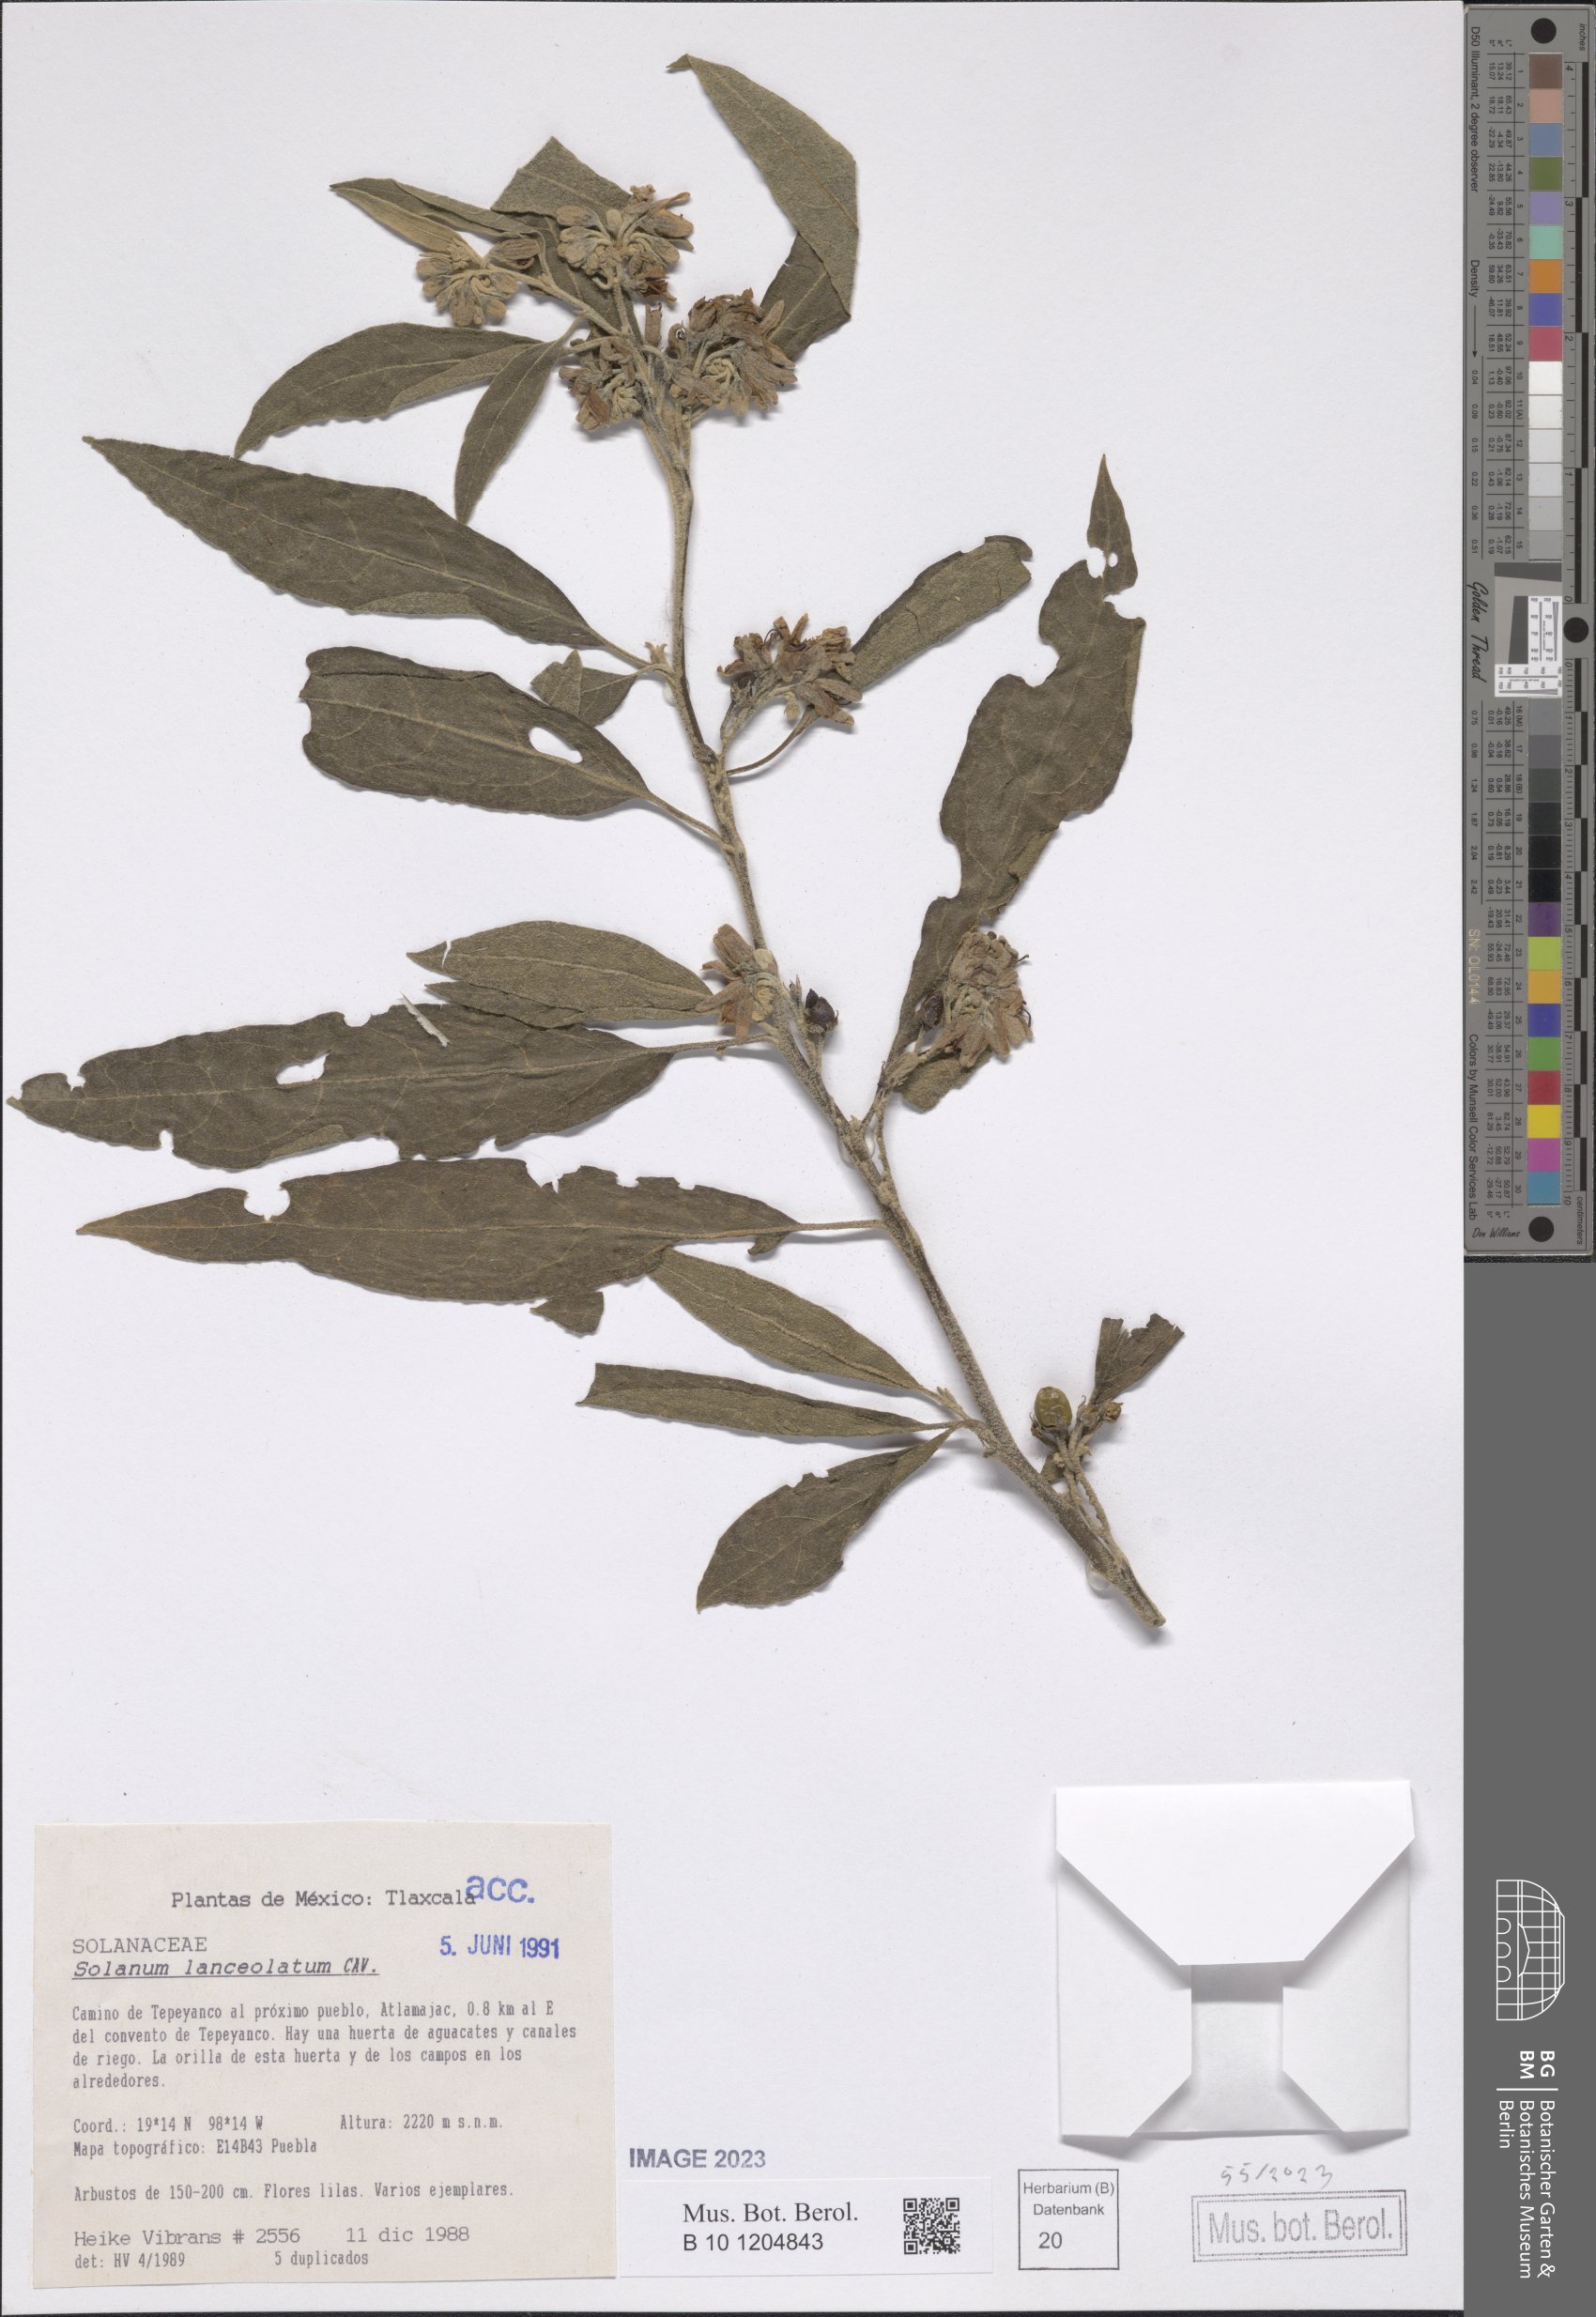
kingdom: Plantae
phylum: Tracheophyta
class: Magnoliopsida
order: Solanales
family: Solanaceae
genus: Solanum
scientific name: Solanum lanceolatum
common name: Orangeberry nightshade
